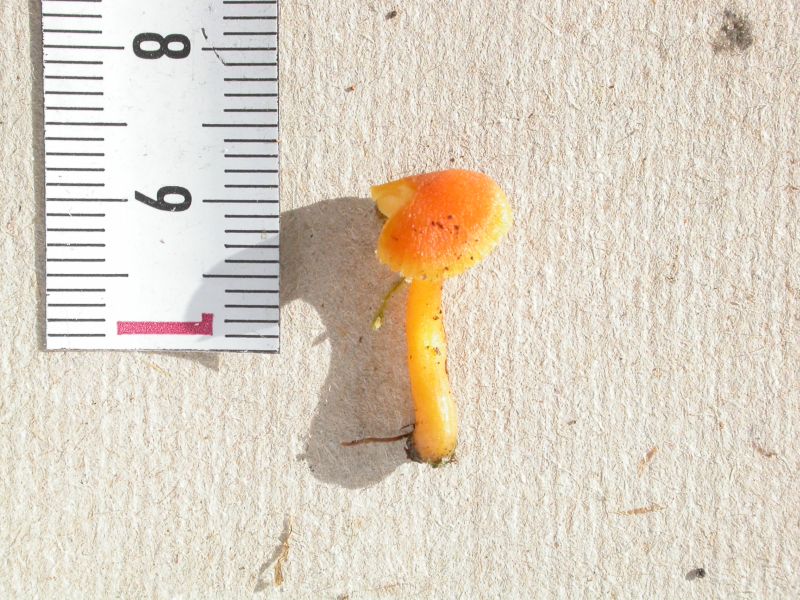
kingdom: Fungi
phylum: Basidiomycota
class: Agaricomycetes
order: Agaricales
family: Hygrophoraceae
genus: Hygrocybe
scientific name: Hygrocybe miniata
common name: mønje-vokshat
